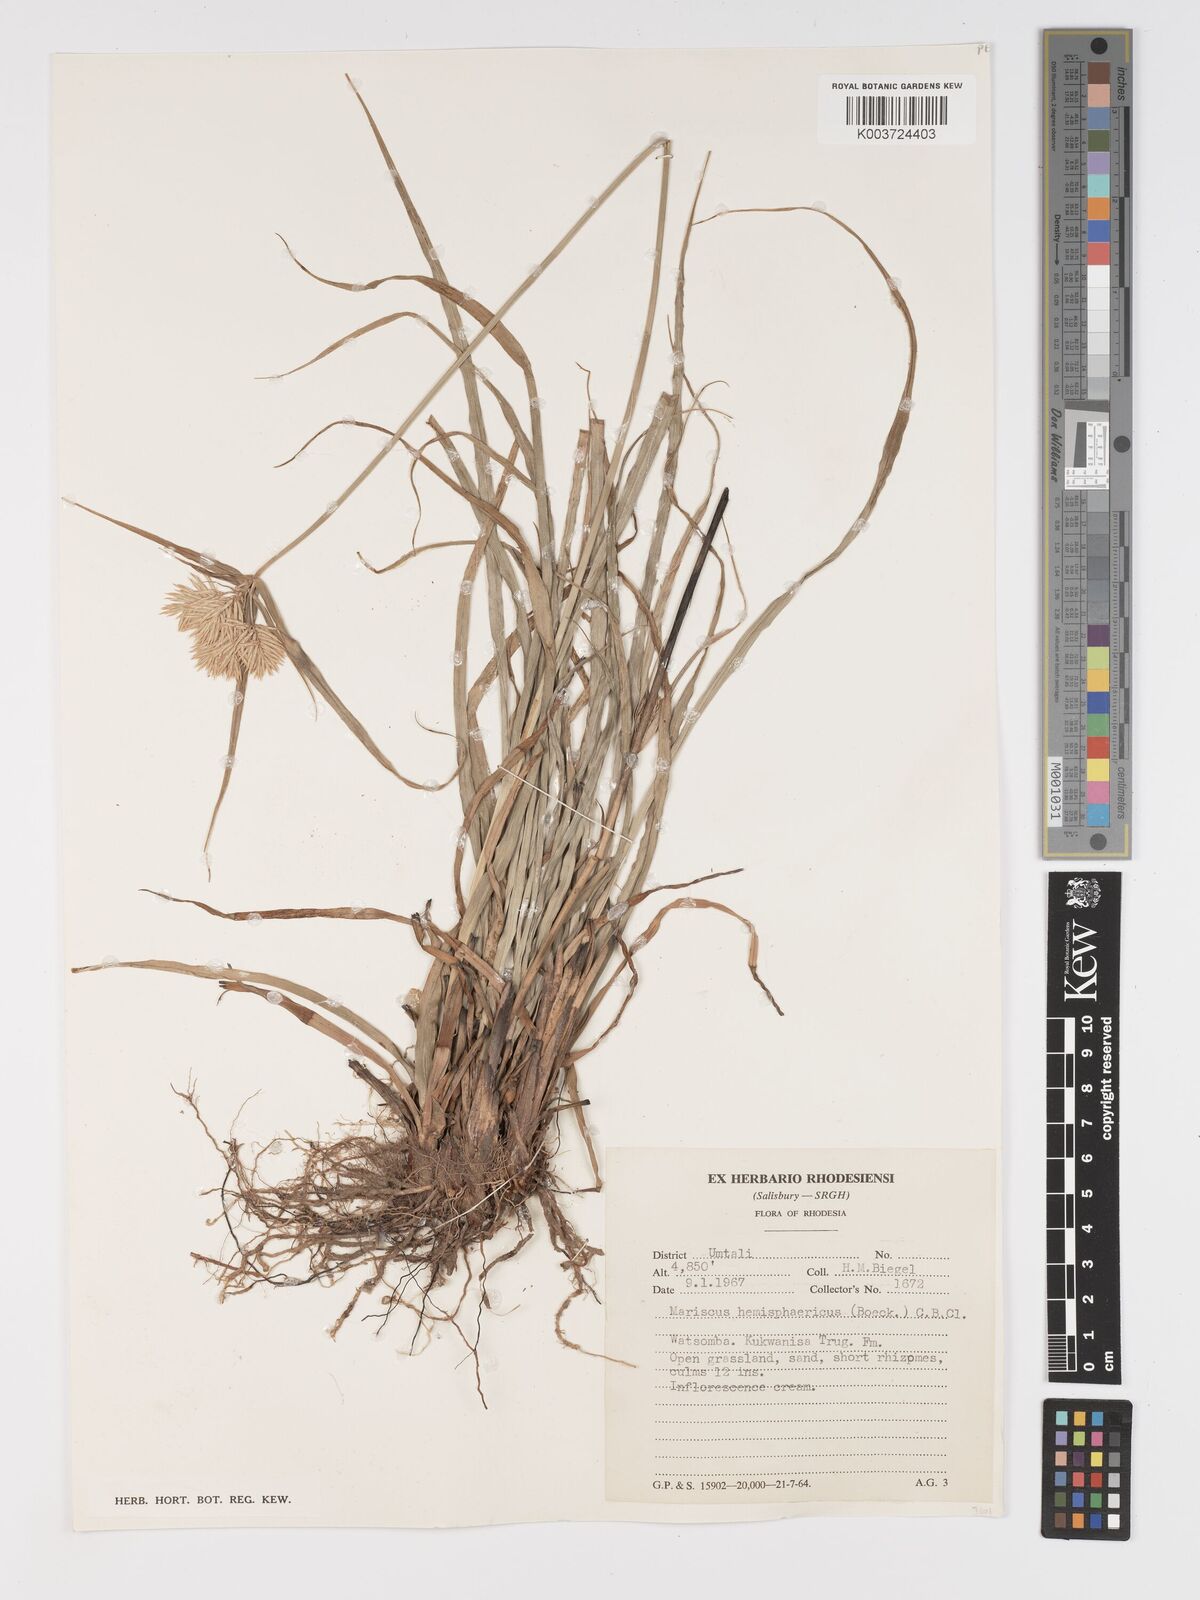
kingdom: Plantae
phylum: Tracheophyta
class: Liliopsida
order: Poales
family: Cyperaceae
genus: Cyperus
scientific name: Cyperus hemisphaericus
